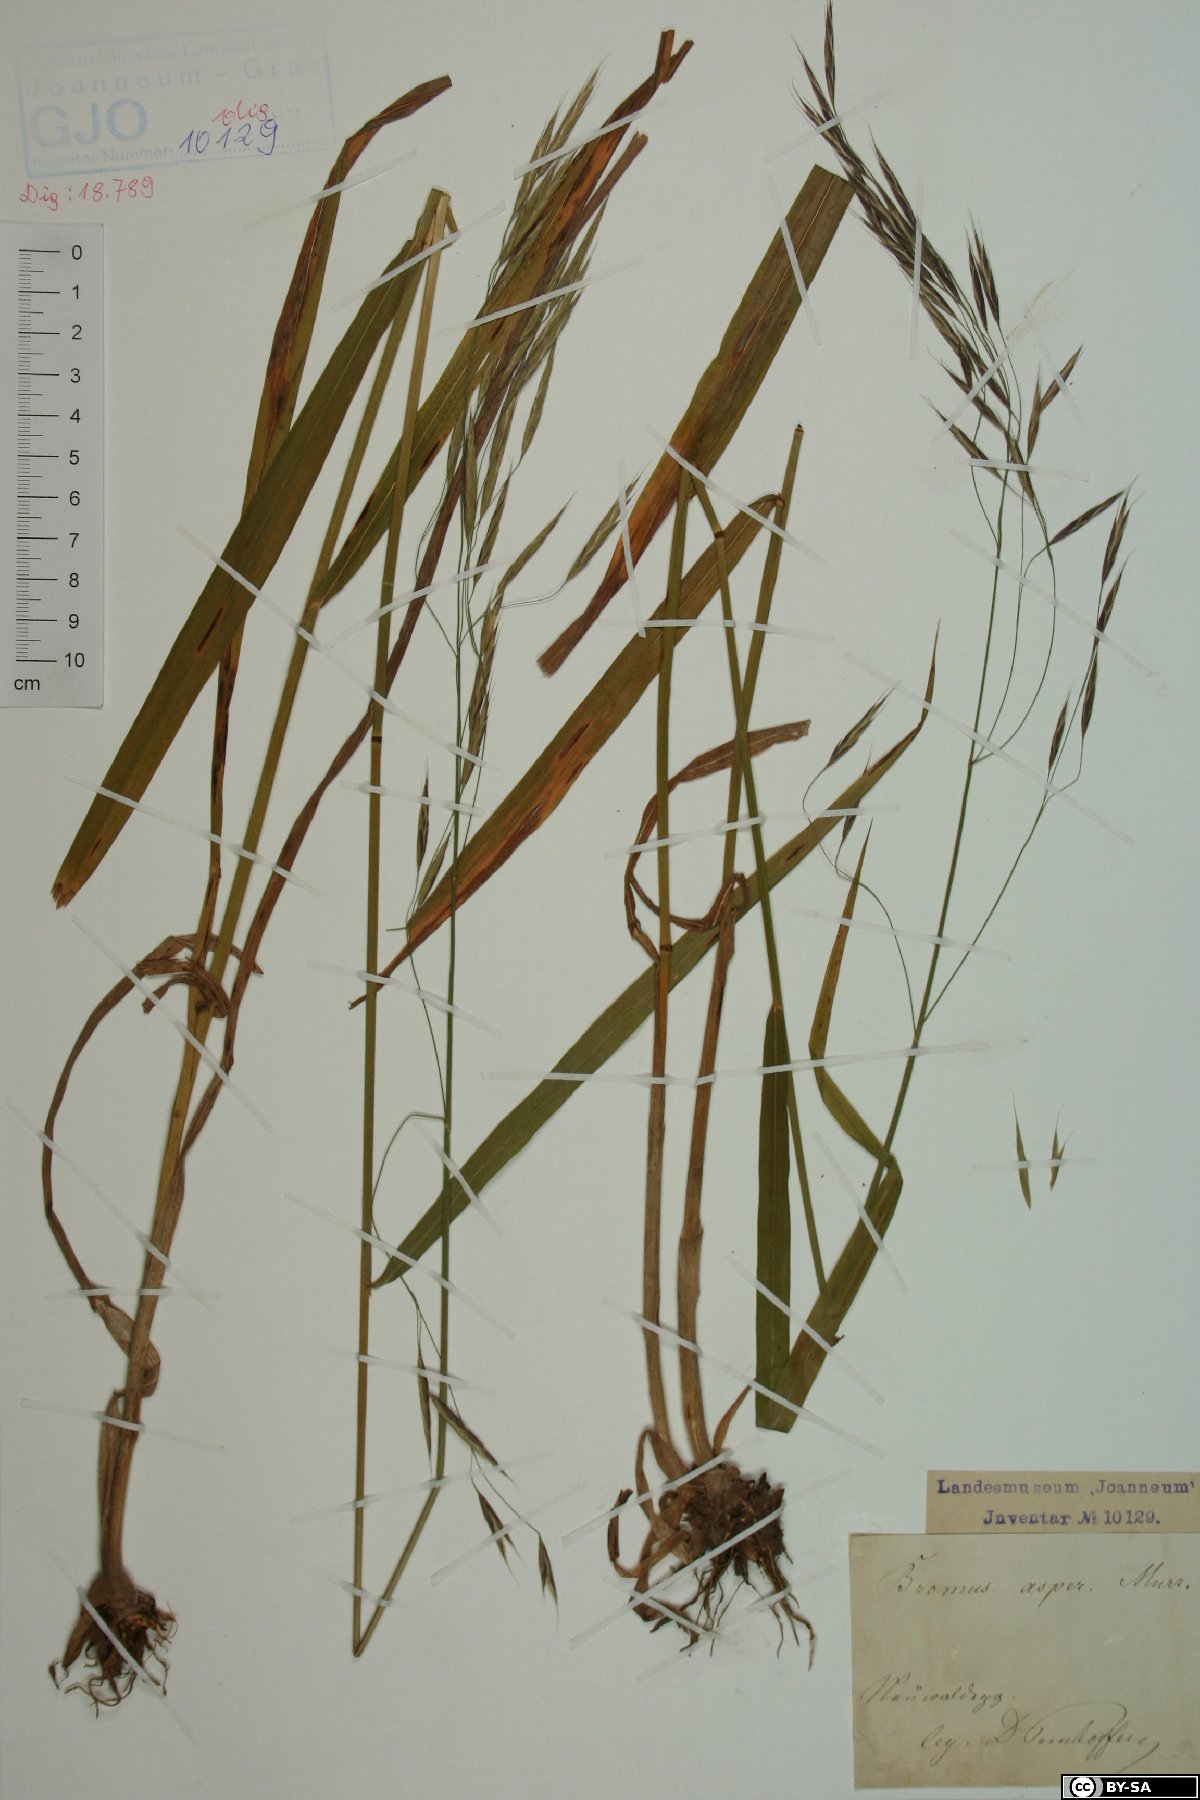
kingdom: Plantae
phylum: Tracheophyta
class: Liliopsida
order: Poales
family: Poaceae
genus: Bromus
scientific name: Bromus ramosus
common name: Hairy brome
